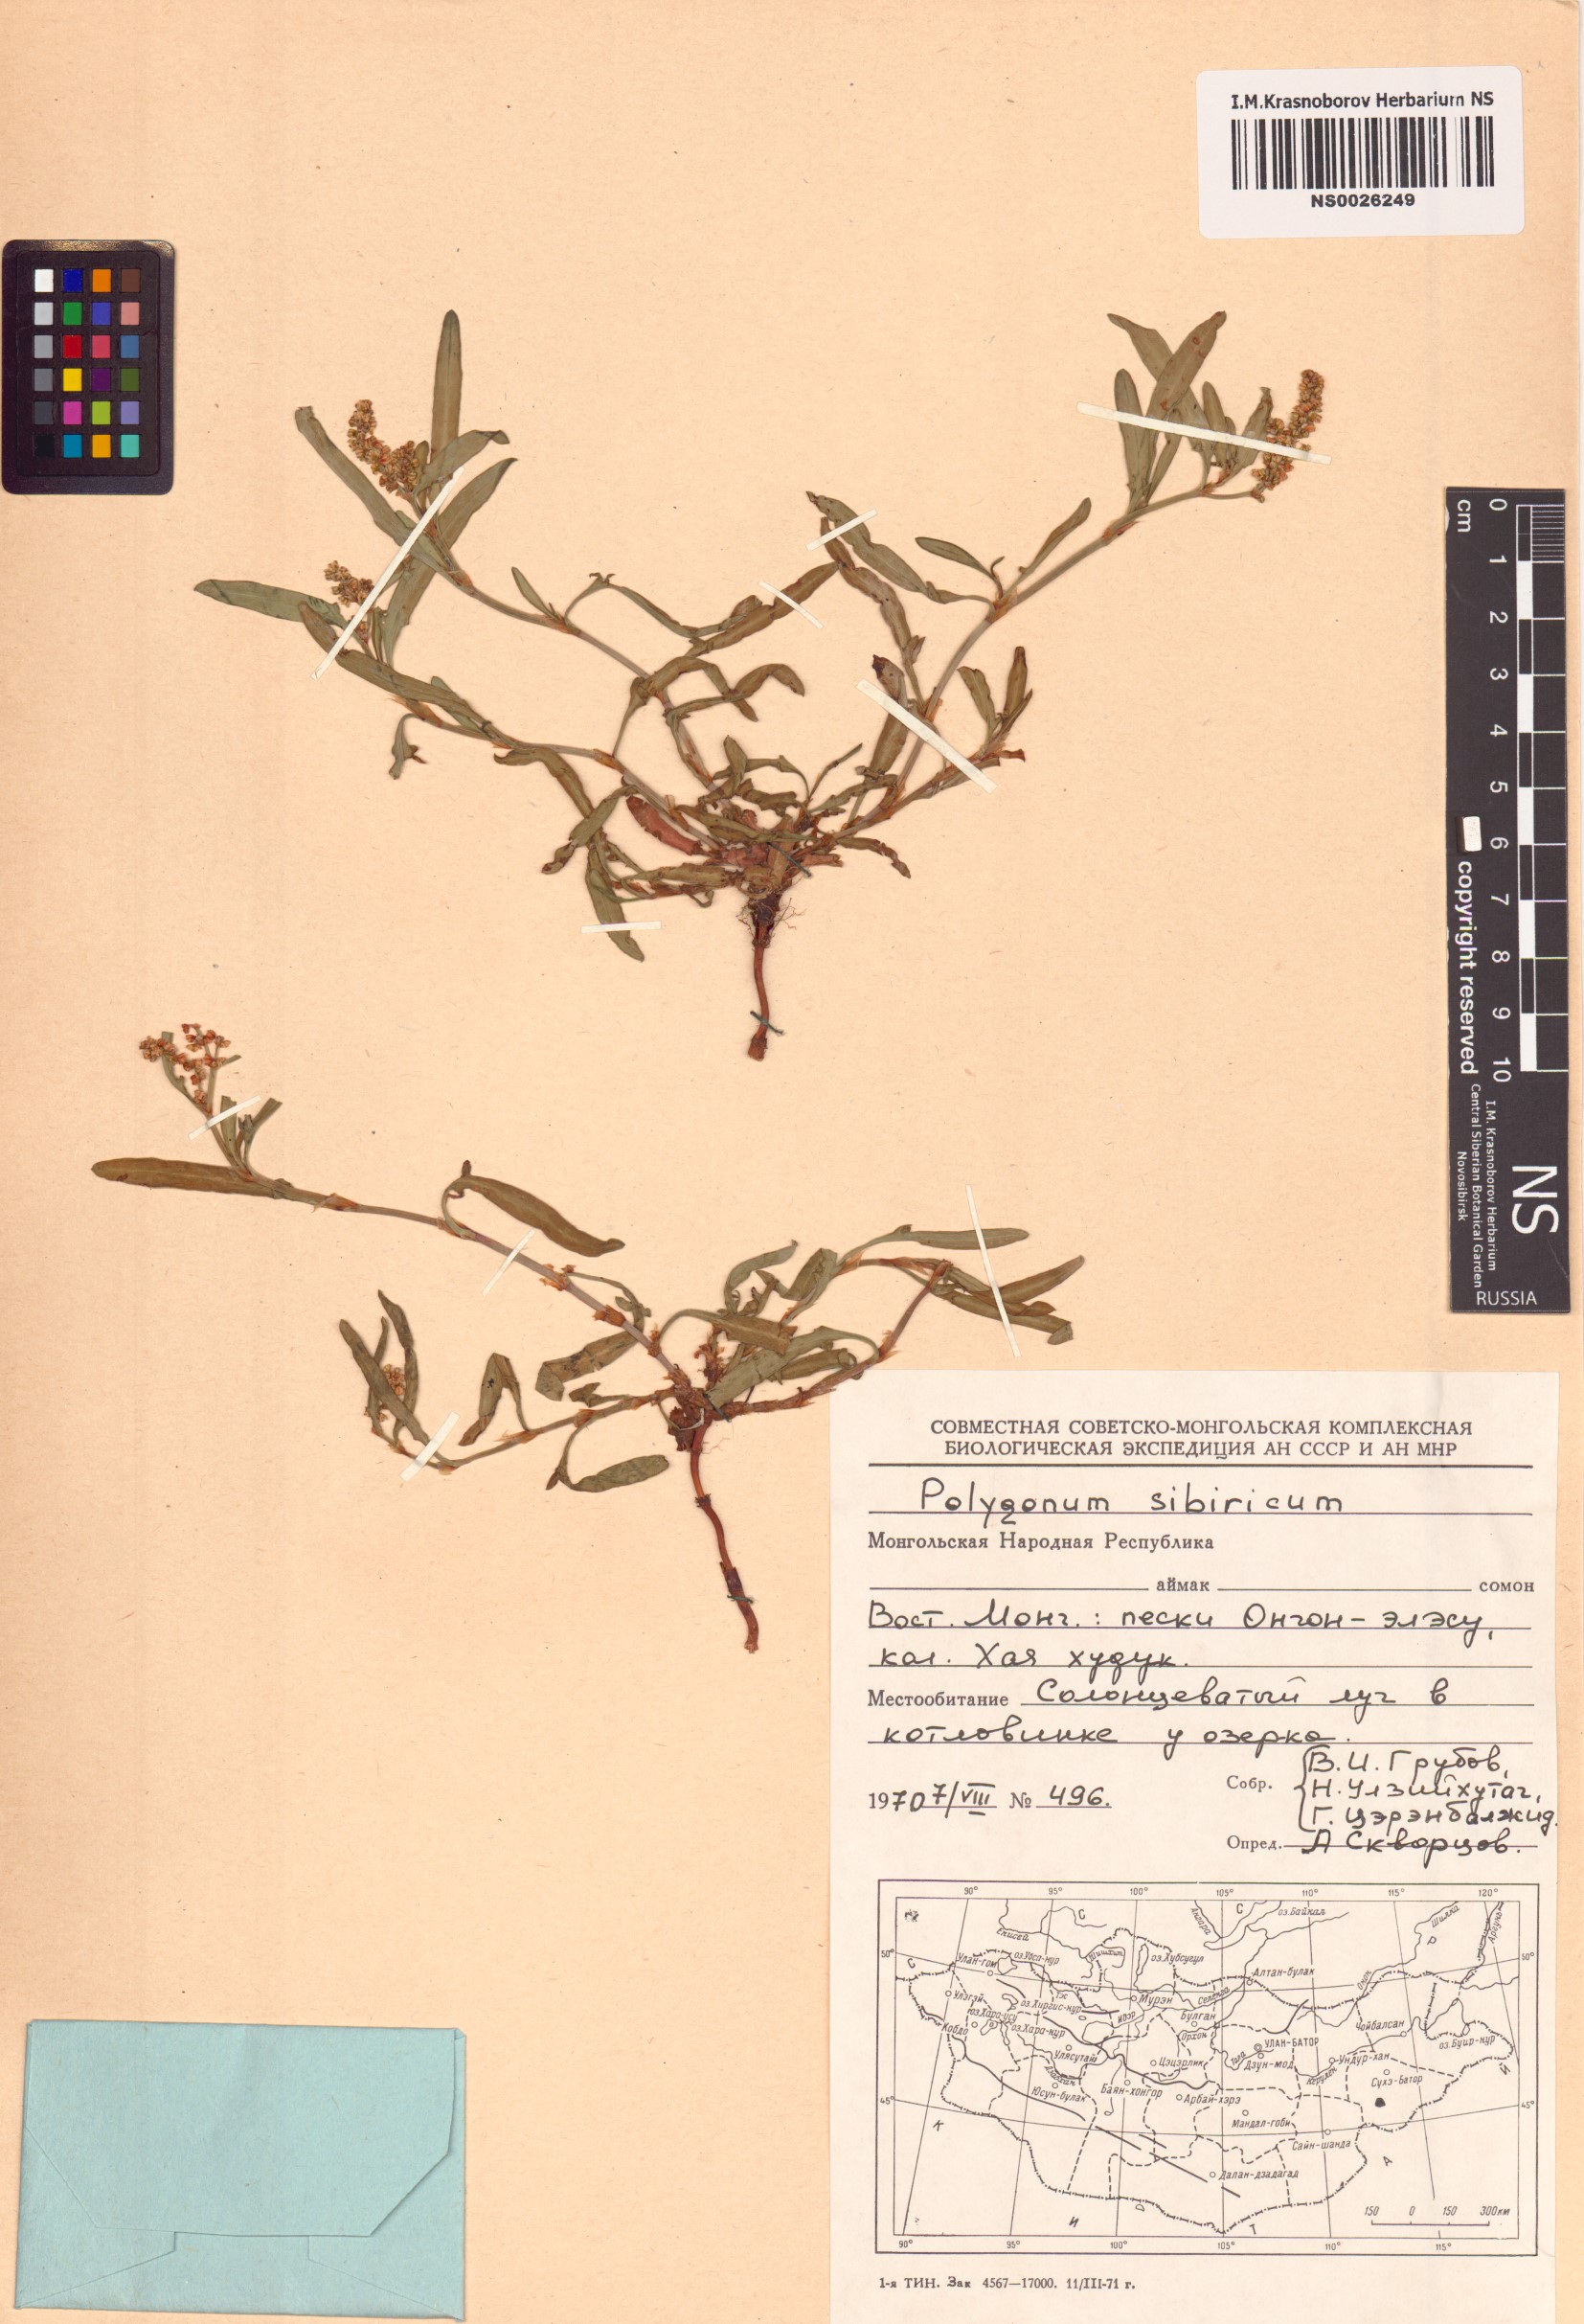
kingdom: Plantae
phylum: Tracheophyta
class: Magnoliopsida
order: Caryophyllales
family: Polygonaceae
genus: Knorringia
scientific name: Knorringia sibirica
